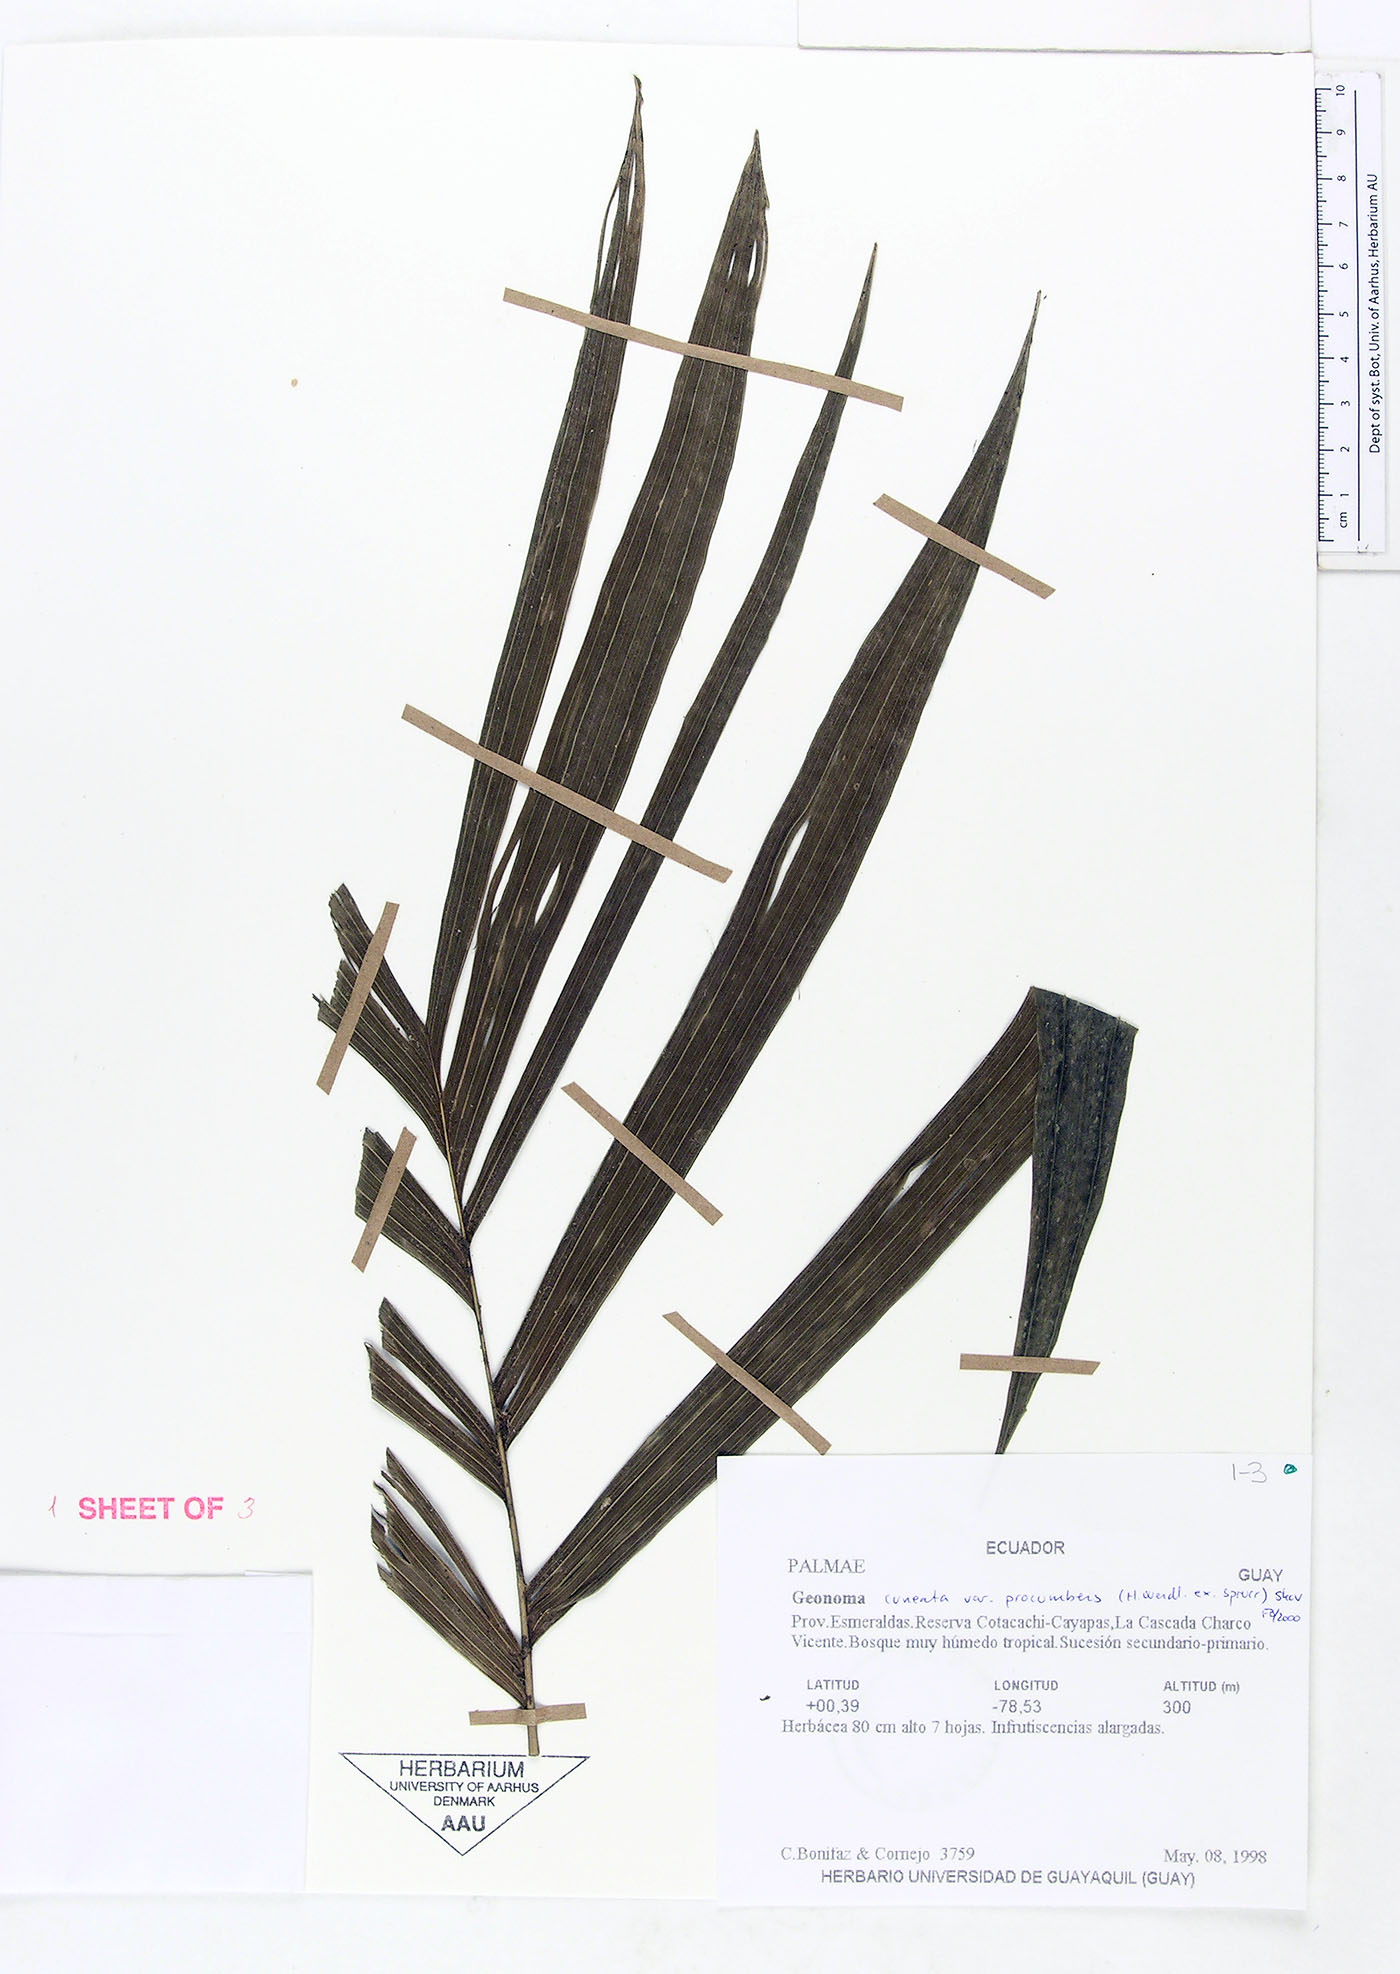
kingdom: Plantae
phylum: Tracheophyta
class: Liliopsida
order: Arecales
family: Arecaceae
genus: Geonoma
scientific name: Geonoma cuneata
